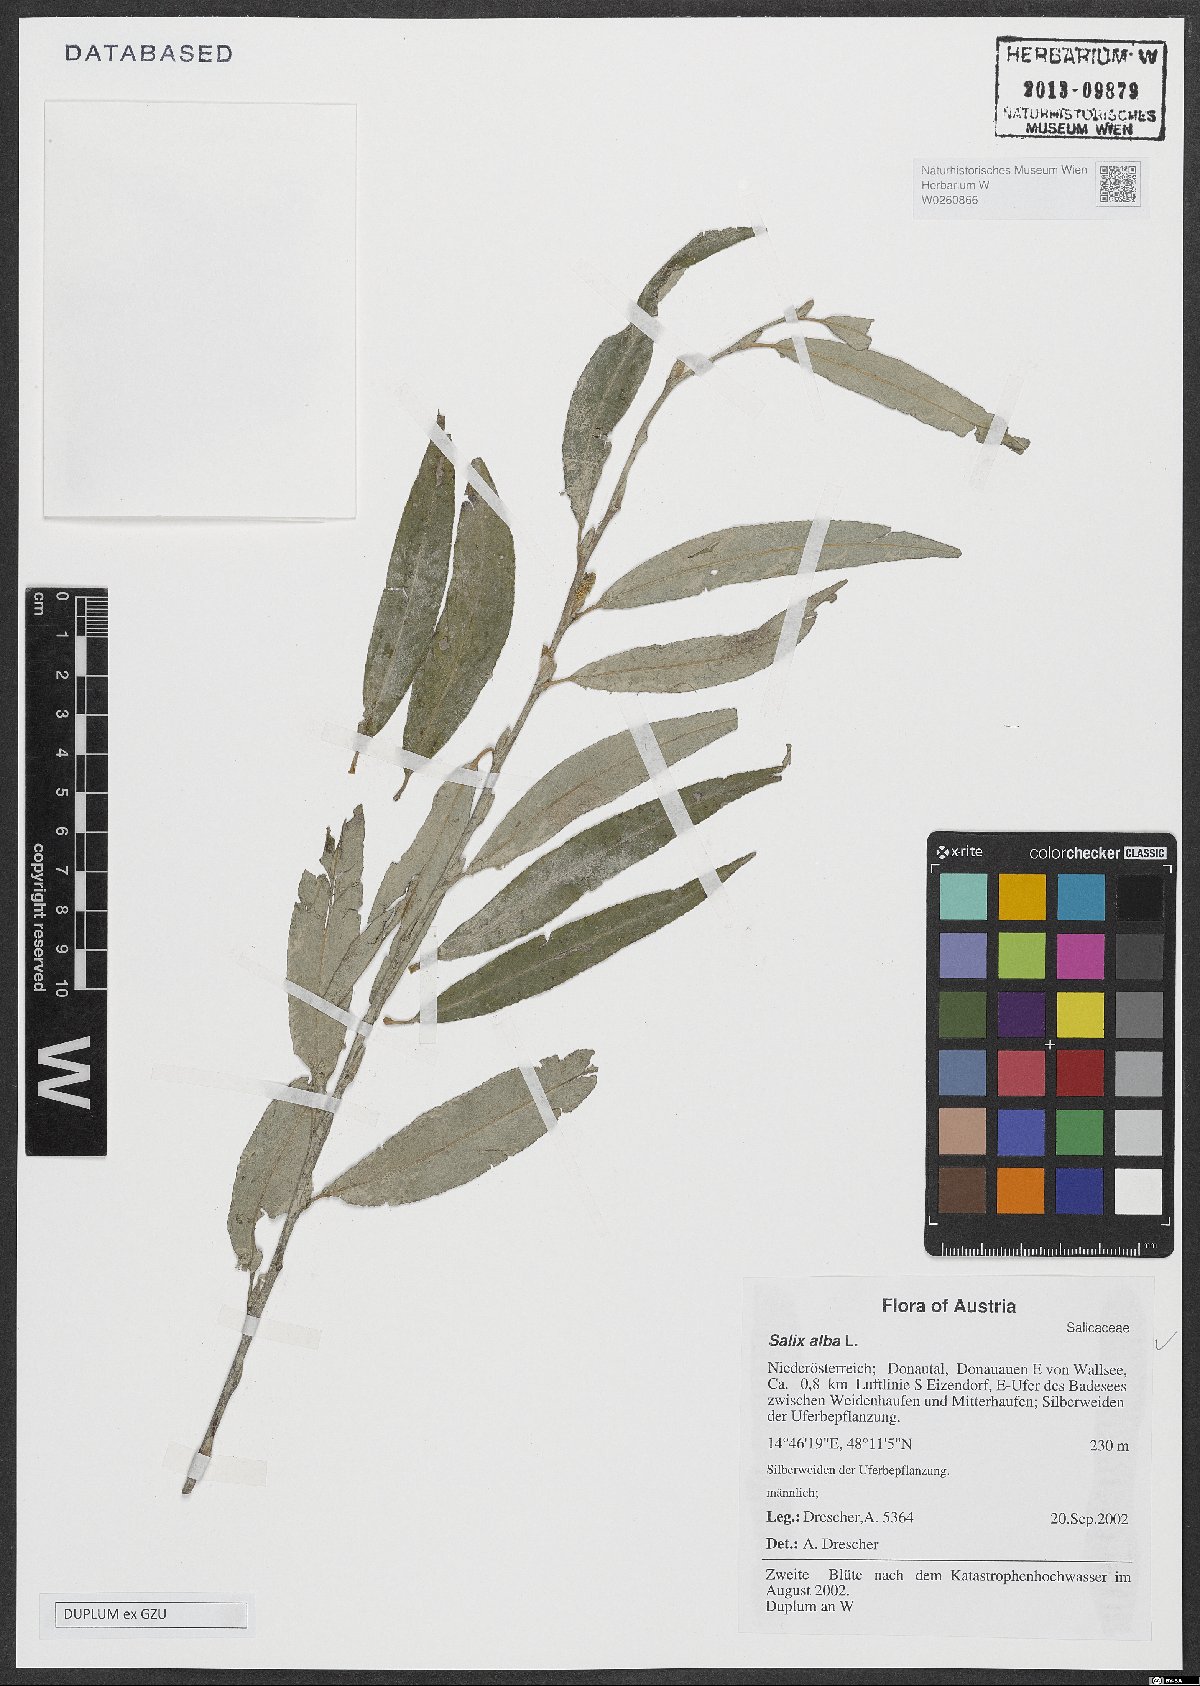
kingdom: Plantae
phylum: Tracheophyta
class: Magnoliopsida
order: Malpighiales
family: Salicaceae
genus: Salix
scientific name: Salix alba
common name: White willow
